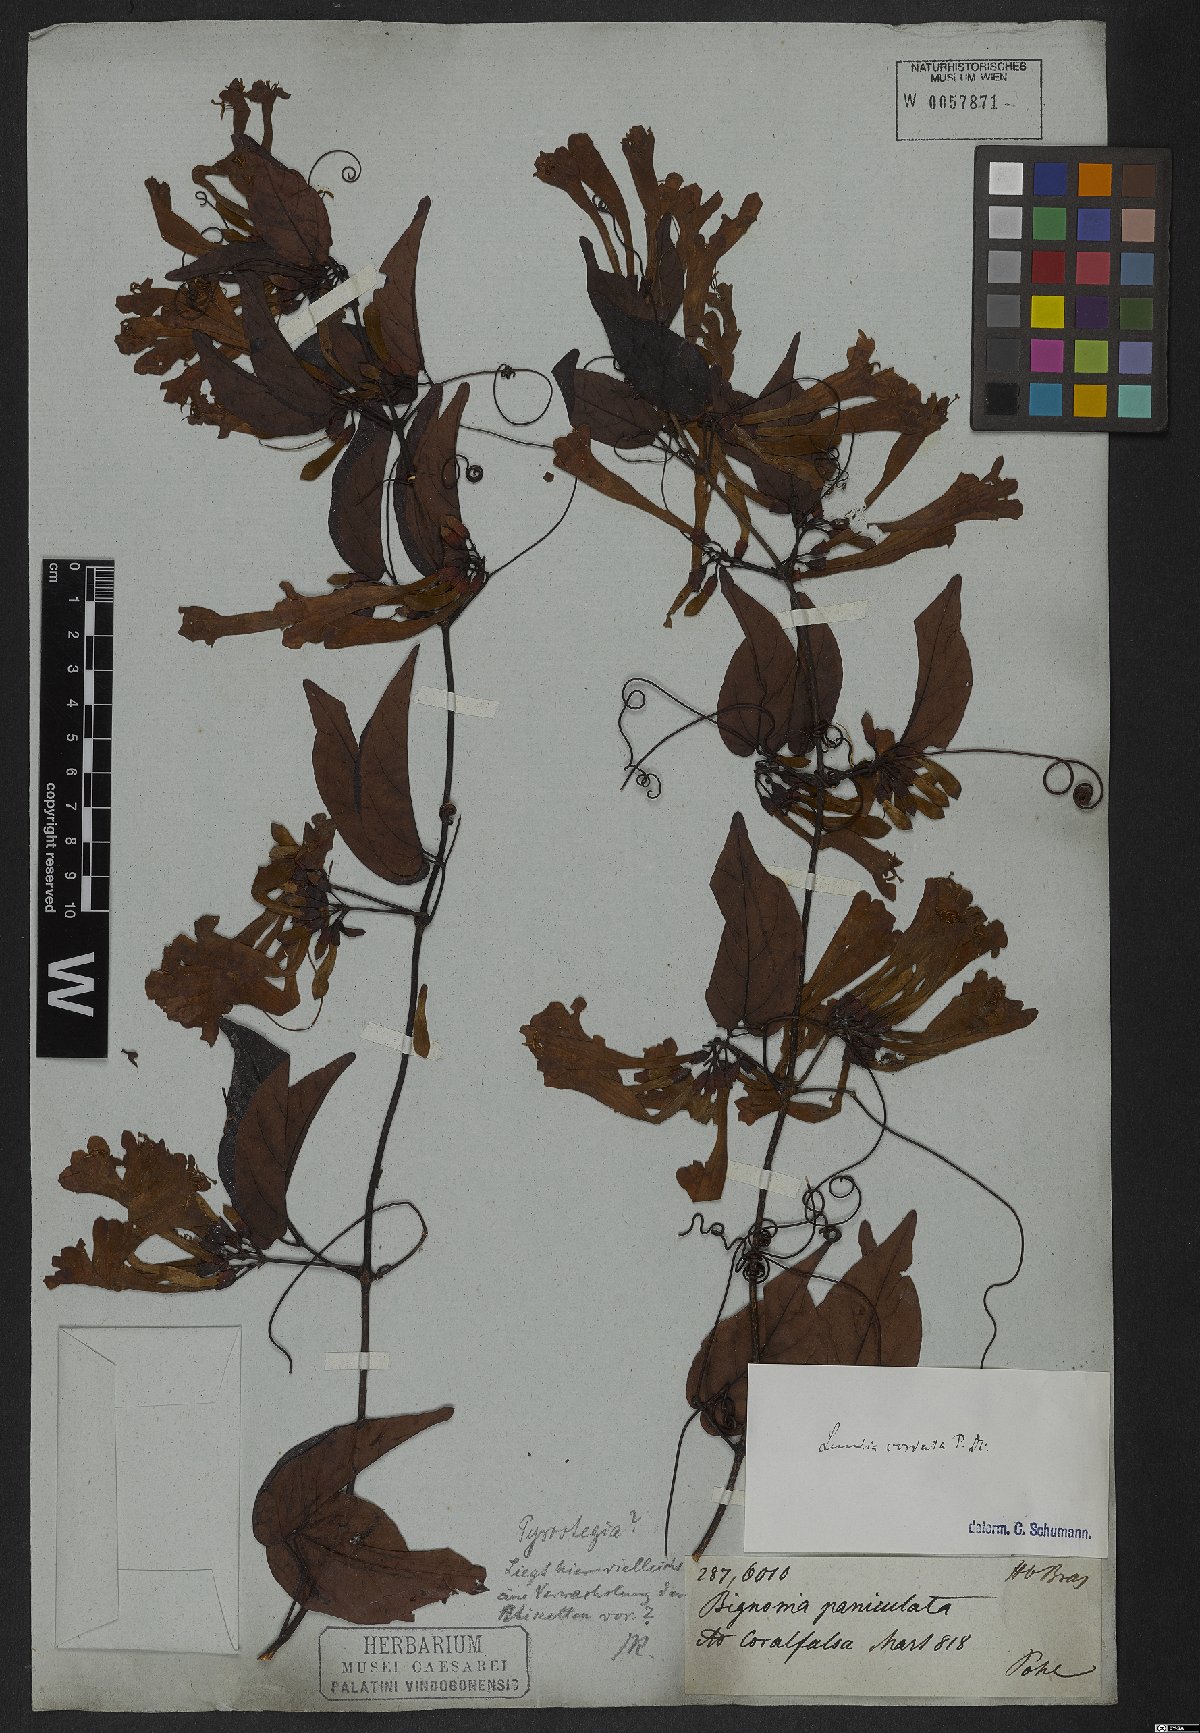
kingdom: Plantae
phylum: Tracheophyta
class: Magnoliopsida
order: Lamiales
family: Bignoniaceae
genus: Lundia
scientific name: Lundia corymbifera
